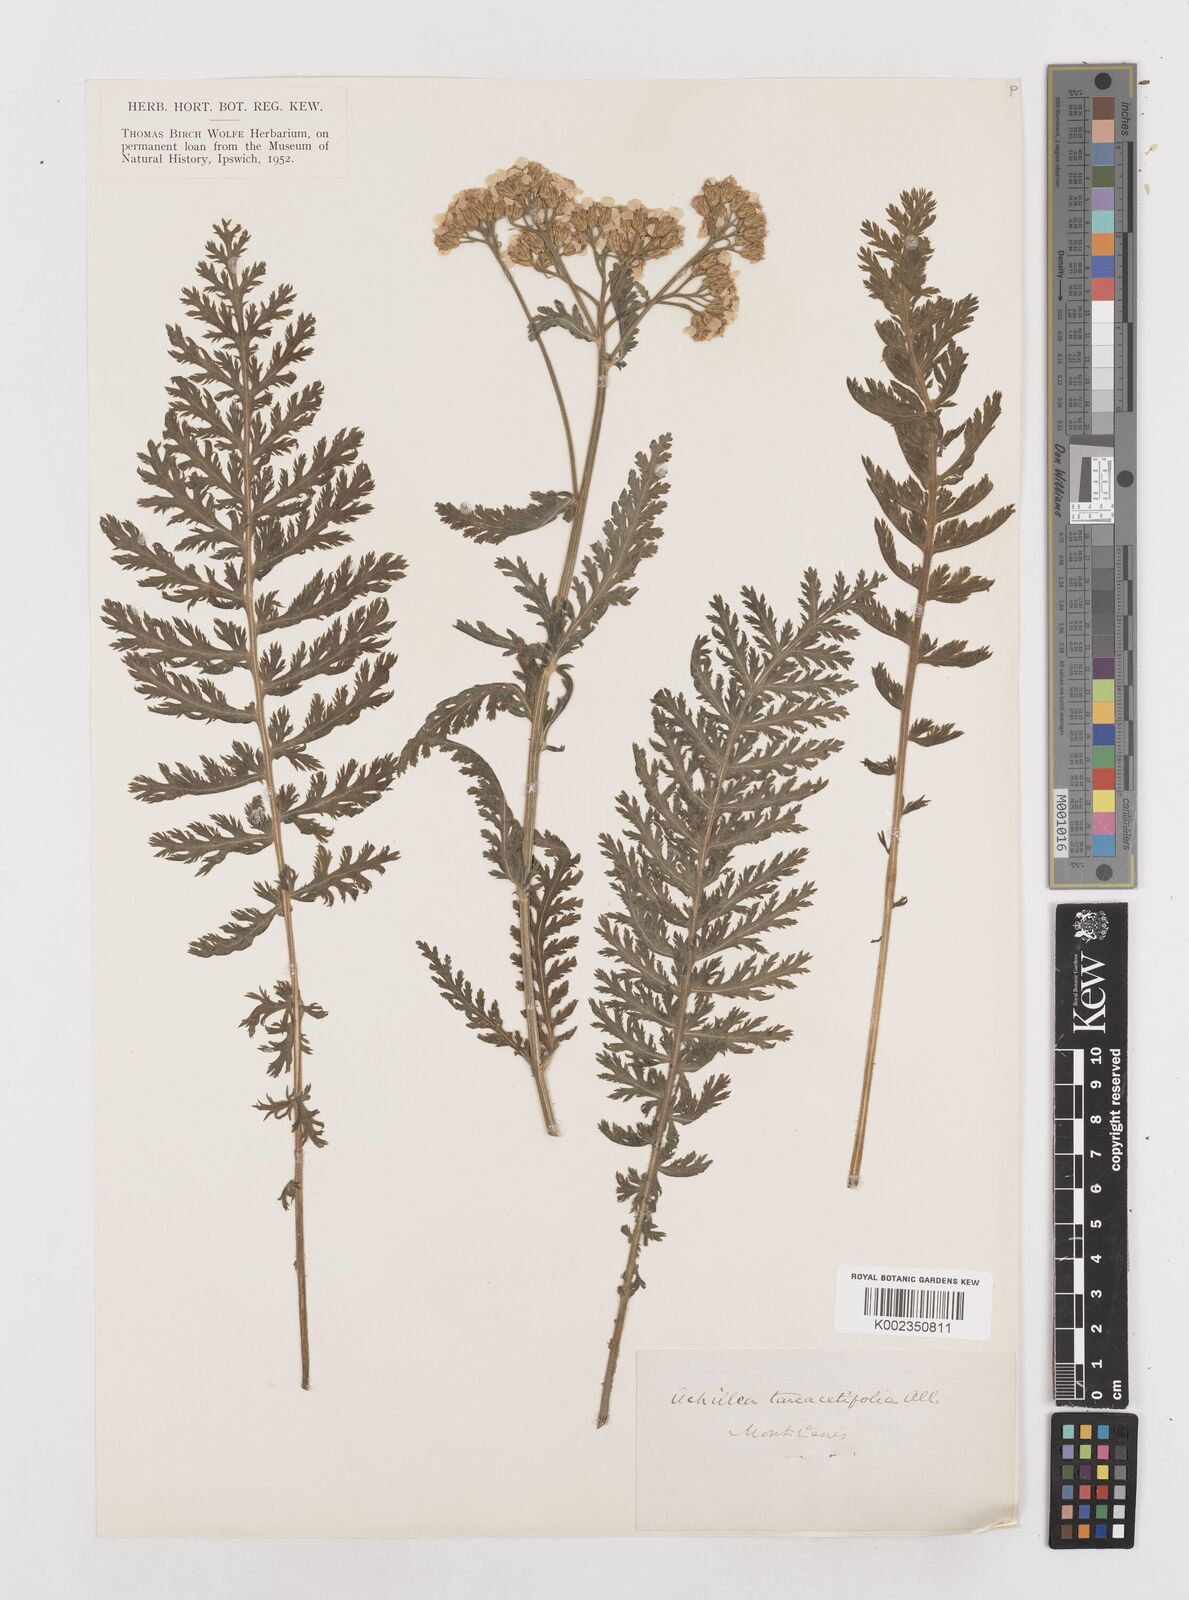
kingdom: Plantae
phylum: Tracheophyta
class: Magnoliopsida
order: Asterales
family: Asteraceae
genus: Achillea
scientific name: Achillea distans
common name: Tall yarrow
